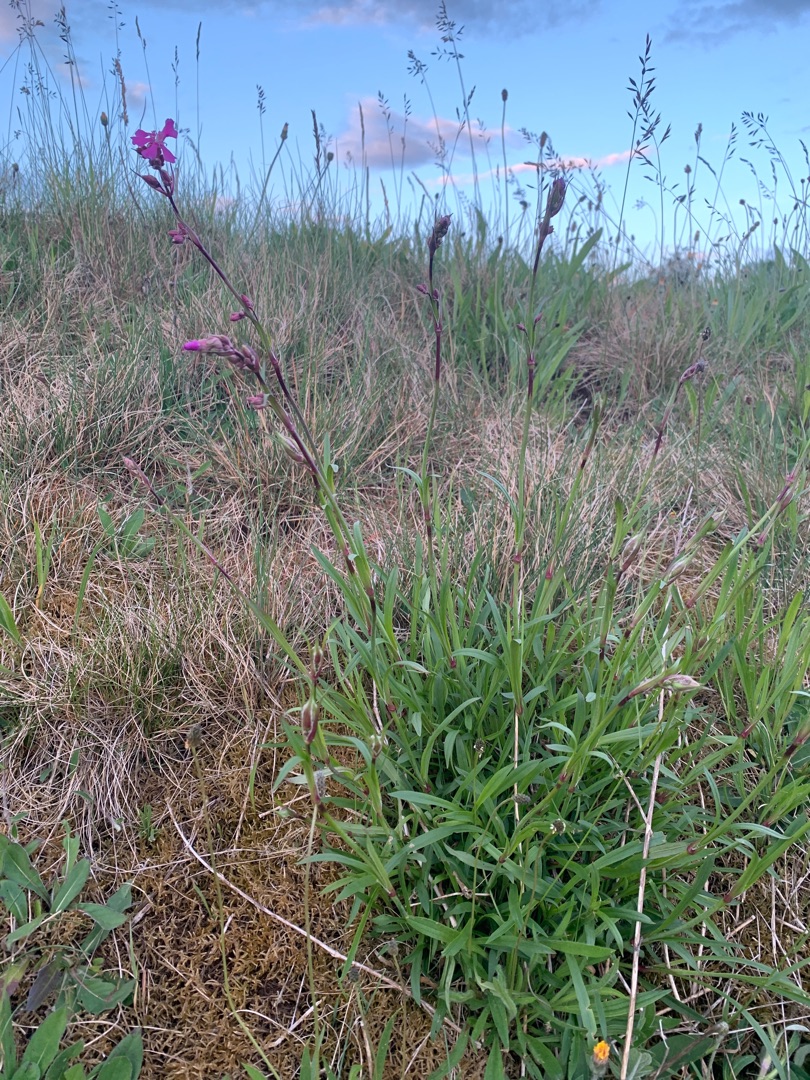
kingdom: Plantae
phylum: Tracheophyta
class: Magnoliopsida
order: Caryophyllales
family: Caryophyllaceae
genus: Viscaria
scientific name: Viscaria vulgaris
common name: Tjærenellike
